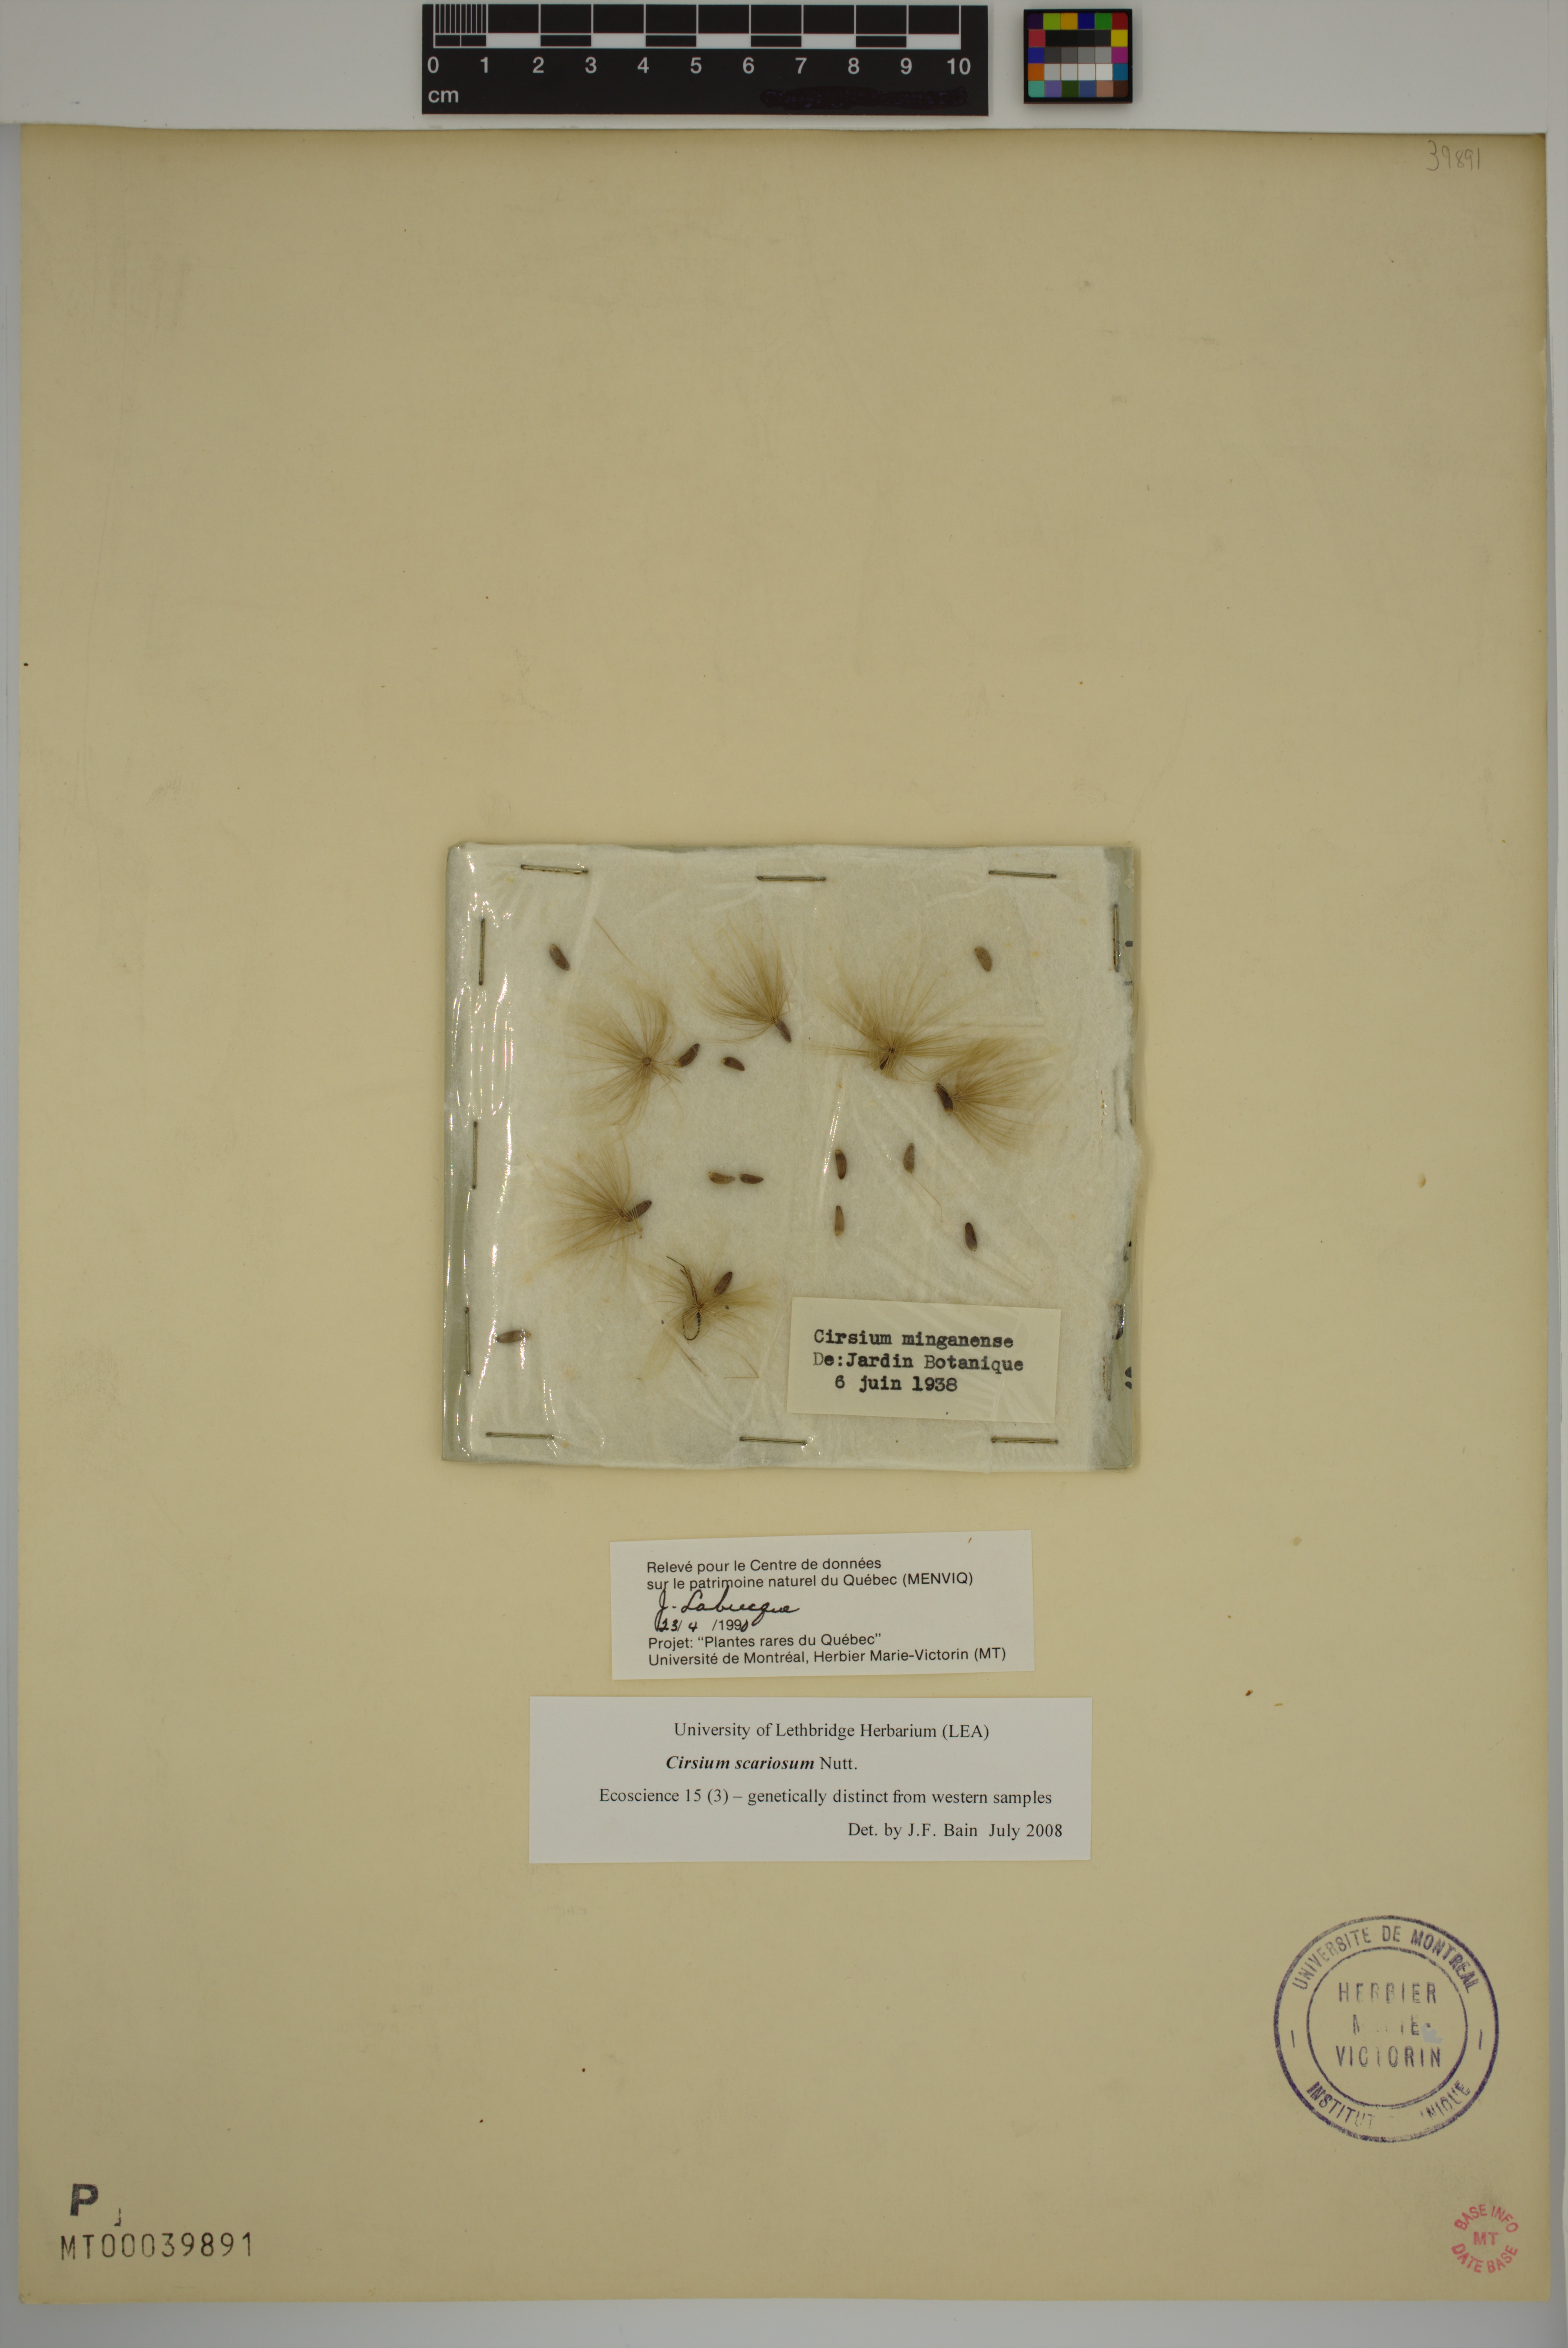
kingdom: Plantae
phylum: Tracheophyta
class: Magnoliopsida
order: Asterales
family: Asteraceae
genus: Cirsium
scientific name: Cirsium scariosum
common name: Meadow thistle
